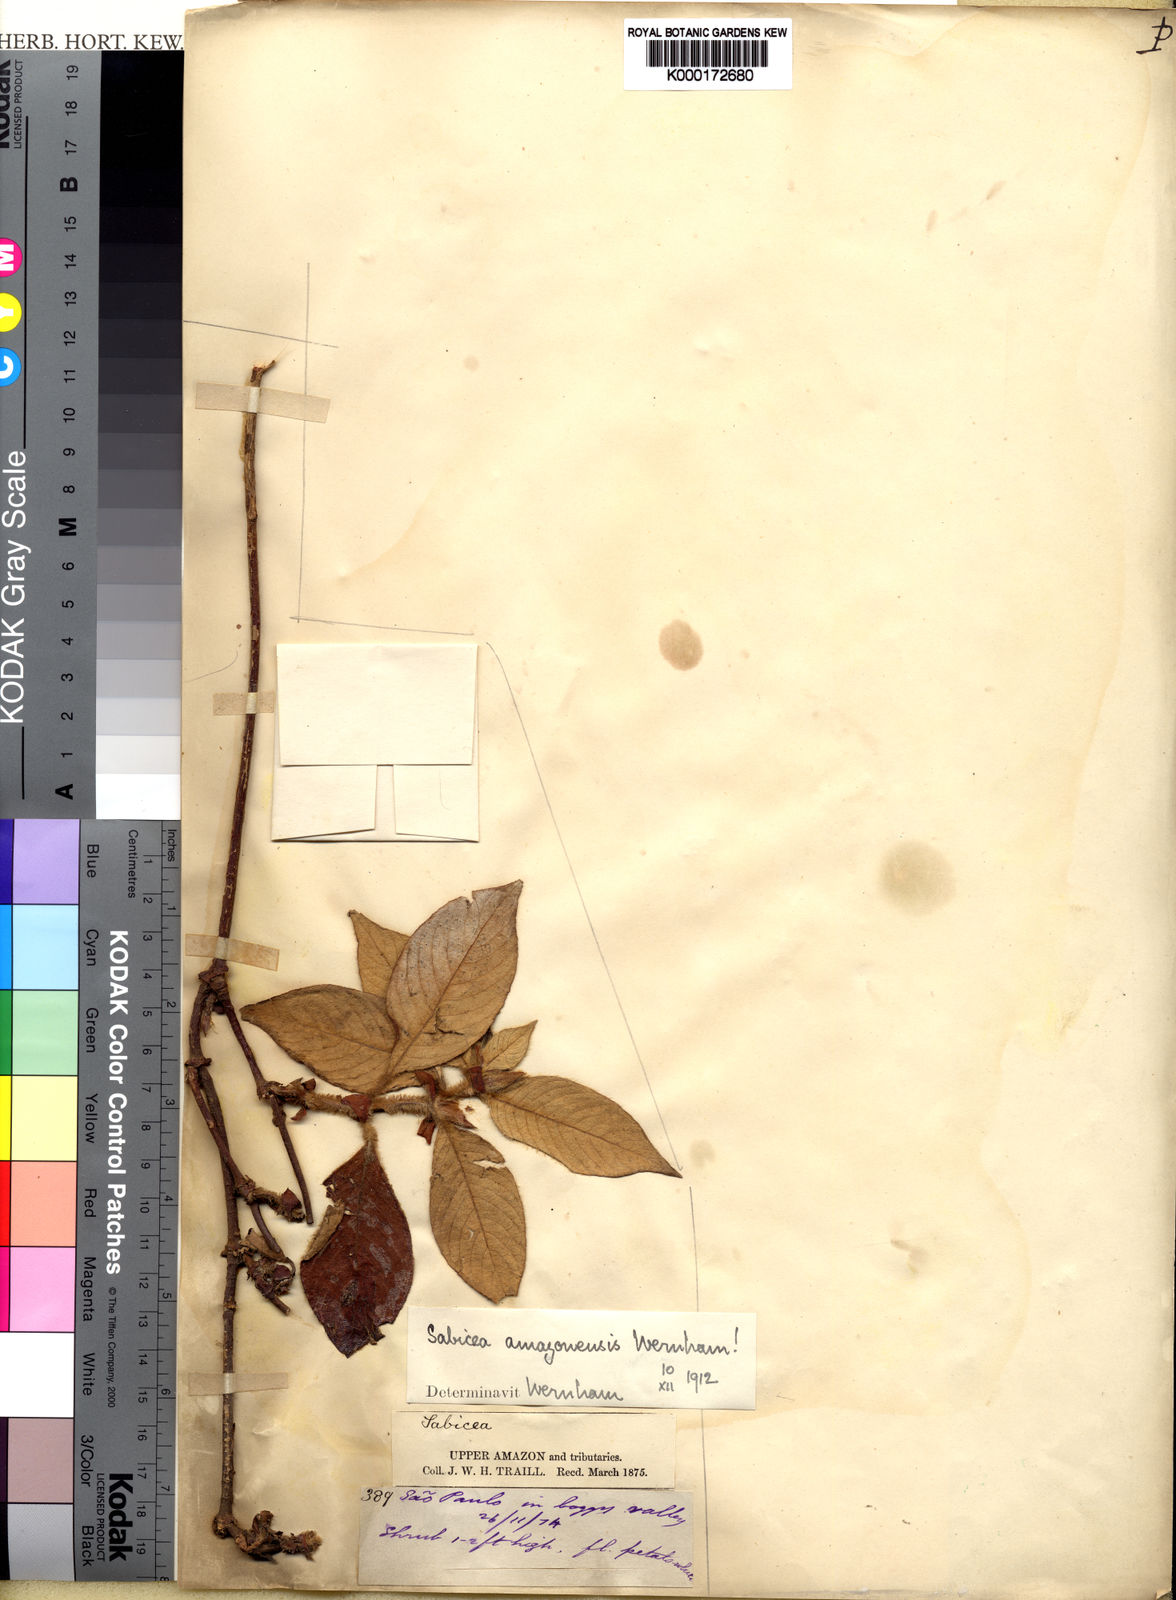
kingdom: Plantae
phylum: Tracheophyta
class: Magnoliopsida
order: Gentianales
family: Rubiaceae
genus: Sabicea
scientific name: Sabicea amazonensis
